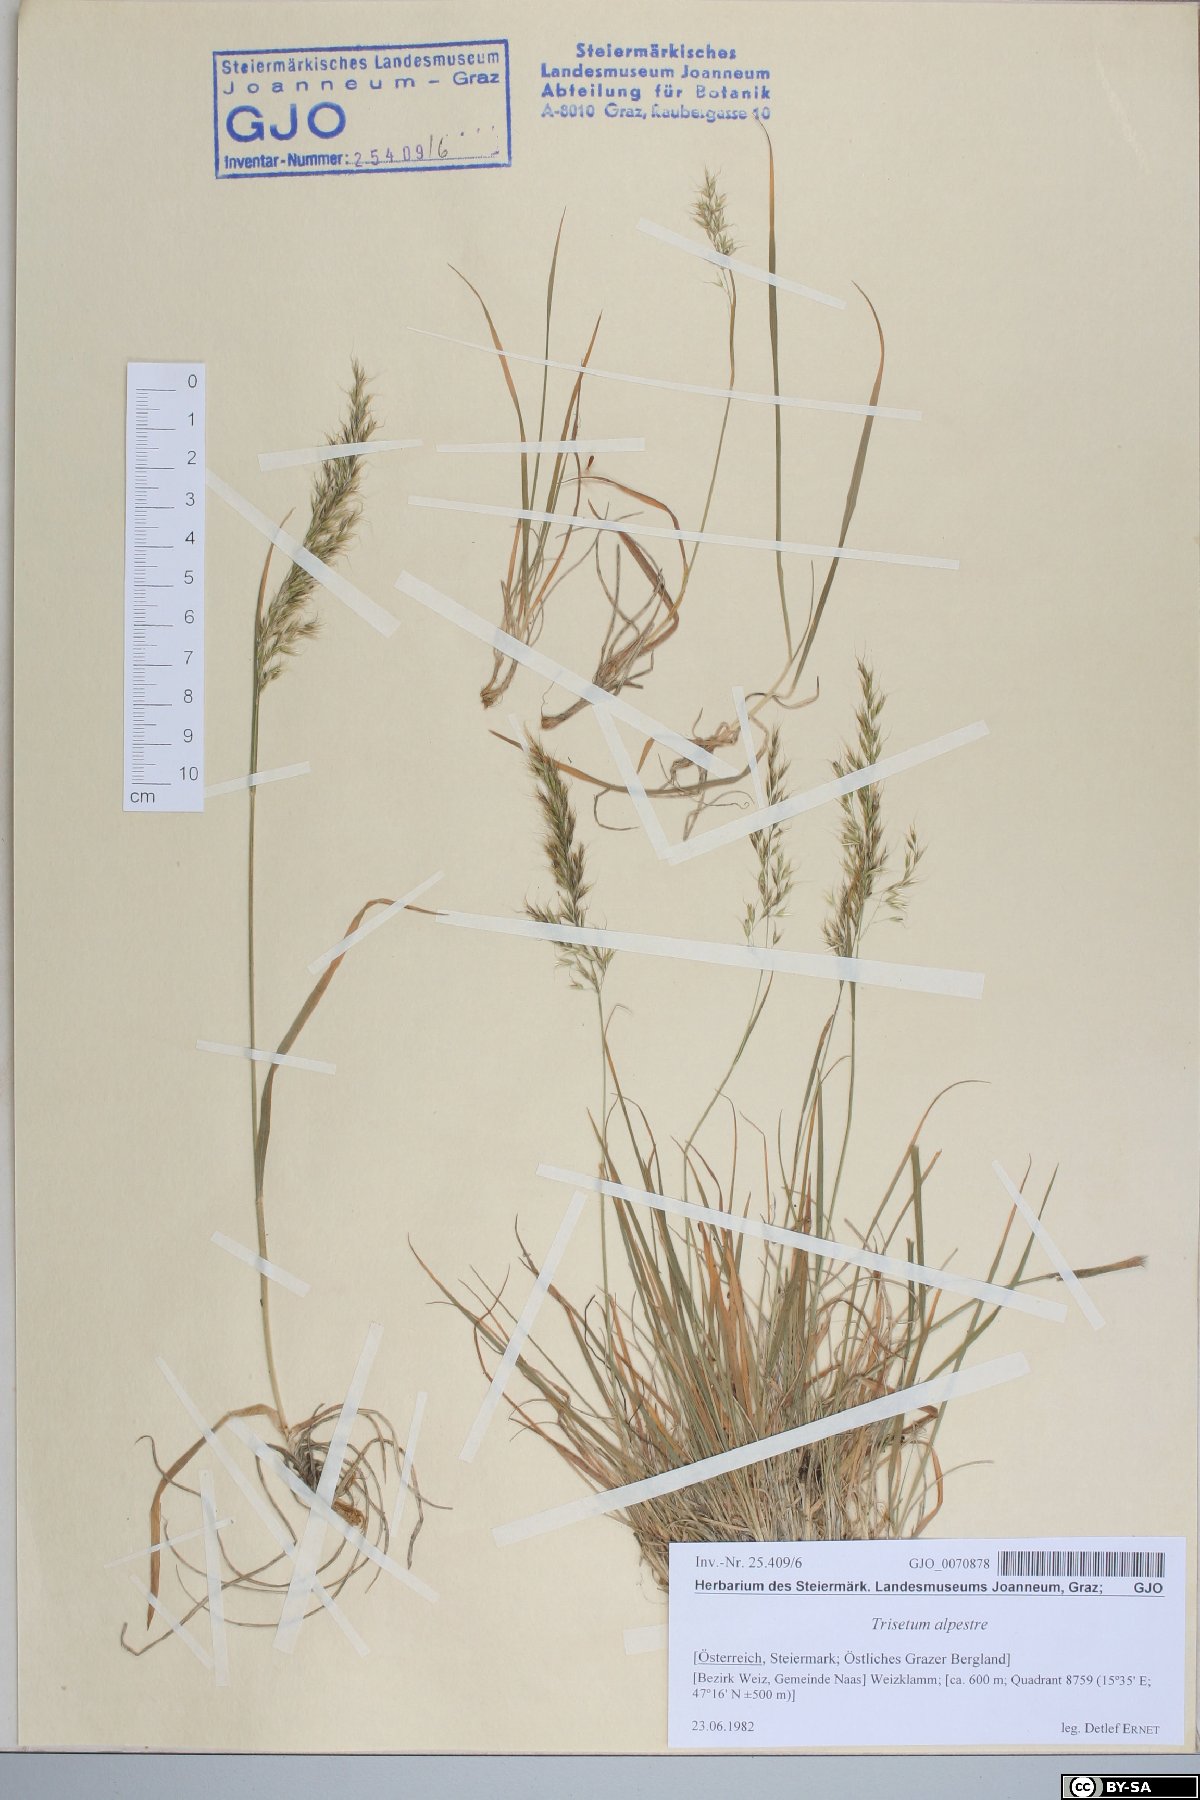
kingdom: Plantae
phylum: Tracheophyta
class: Liliopsida
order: Poales
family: Poaceae
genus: Trisetum
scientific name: Trisetum alpestre
